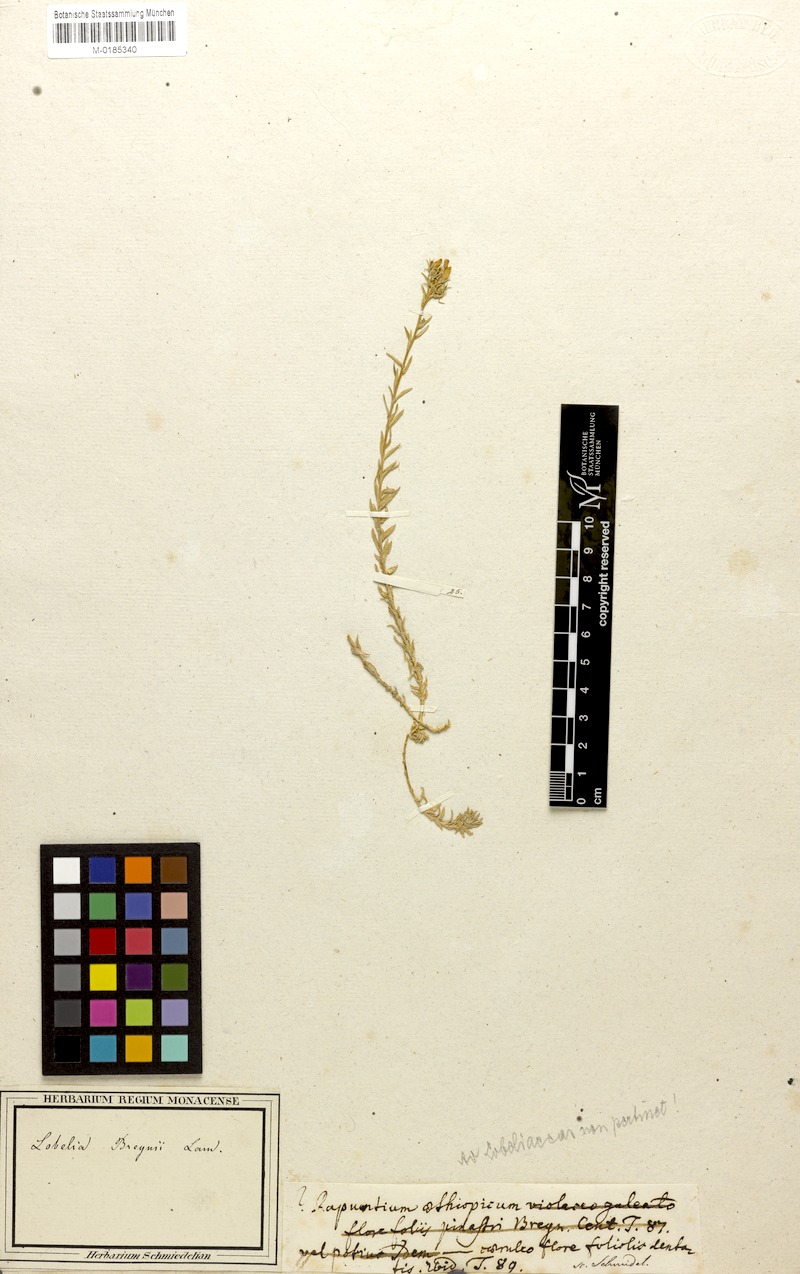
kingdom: Plantae
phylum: Tracheophyta
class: Magnoliopsida
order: Asterales
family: Campanulaceae
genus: Monopsis
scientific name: Monopsis
